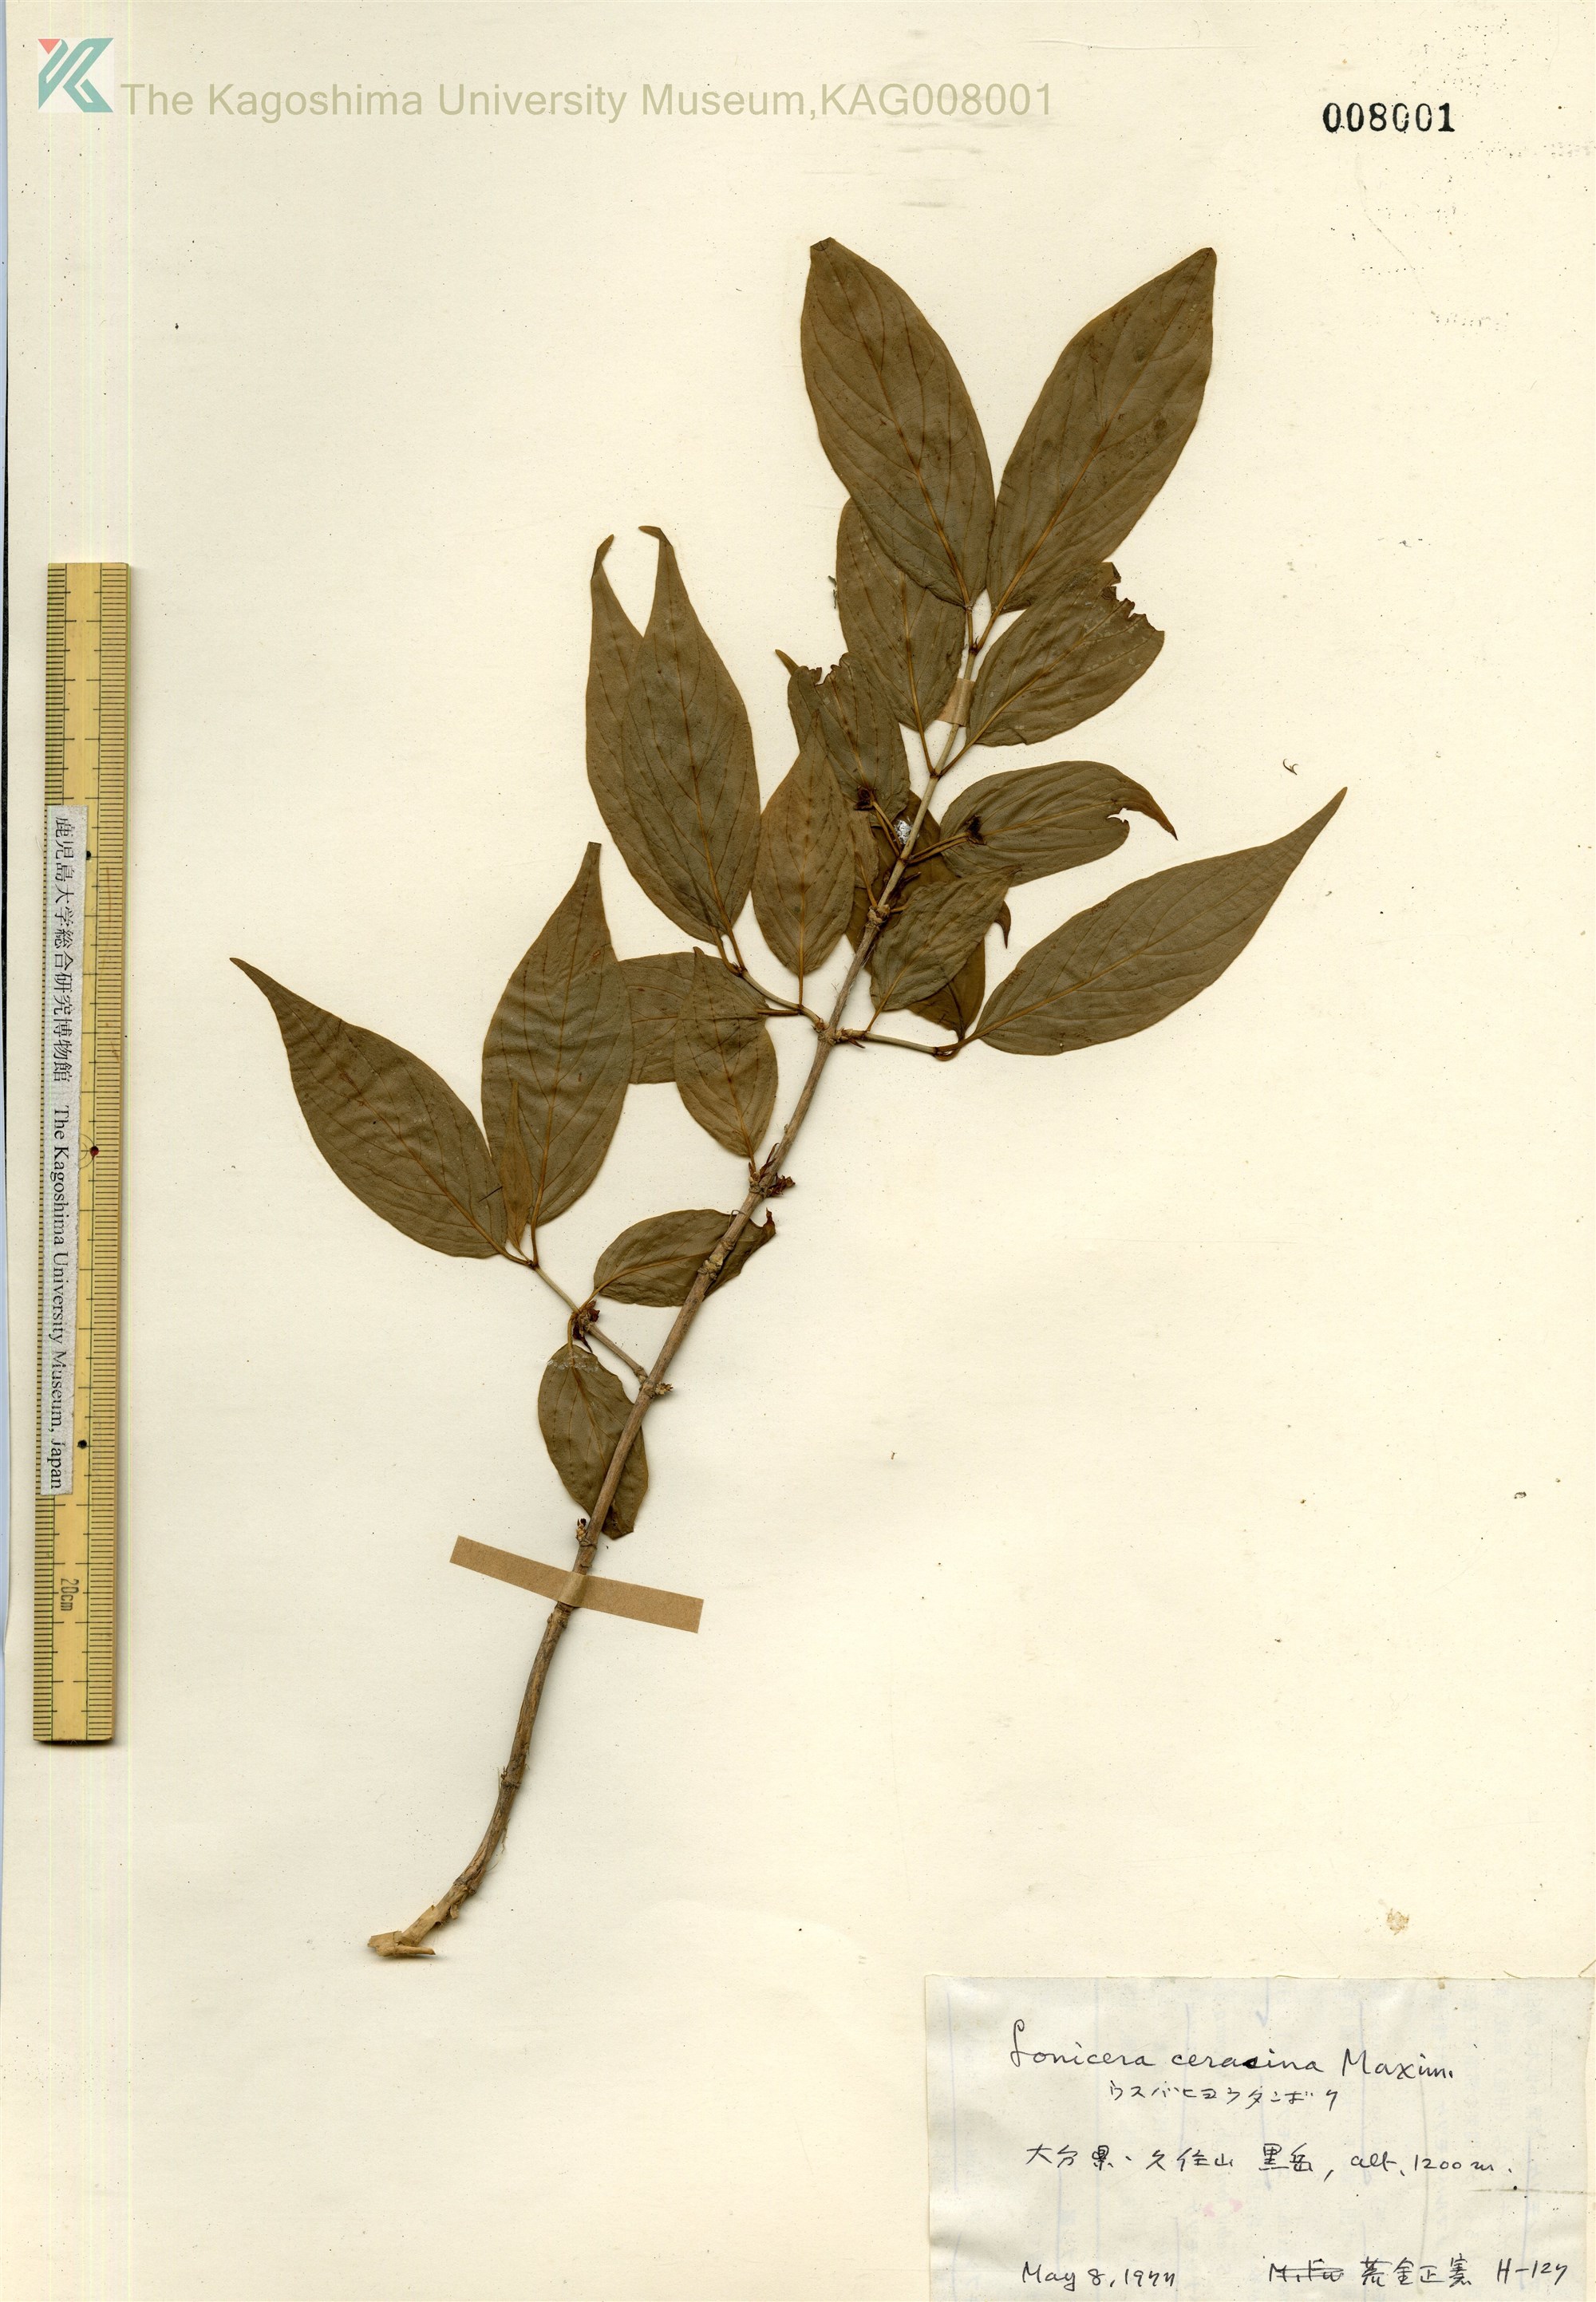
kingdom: Plantae
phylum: Tracheophyta
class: Magnoliopsida
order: Dipsacales
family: Caprifoliaceae
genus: Lonicera
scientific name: Lonicera cerasina
